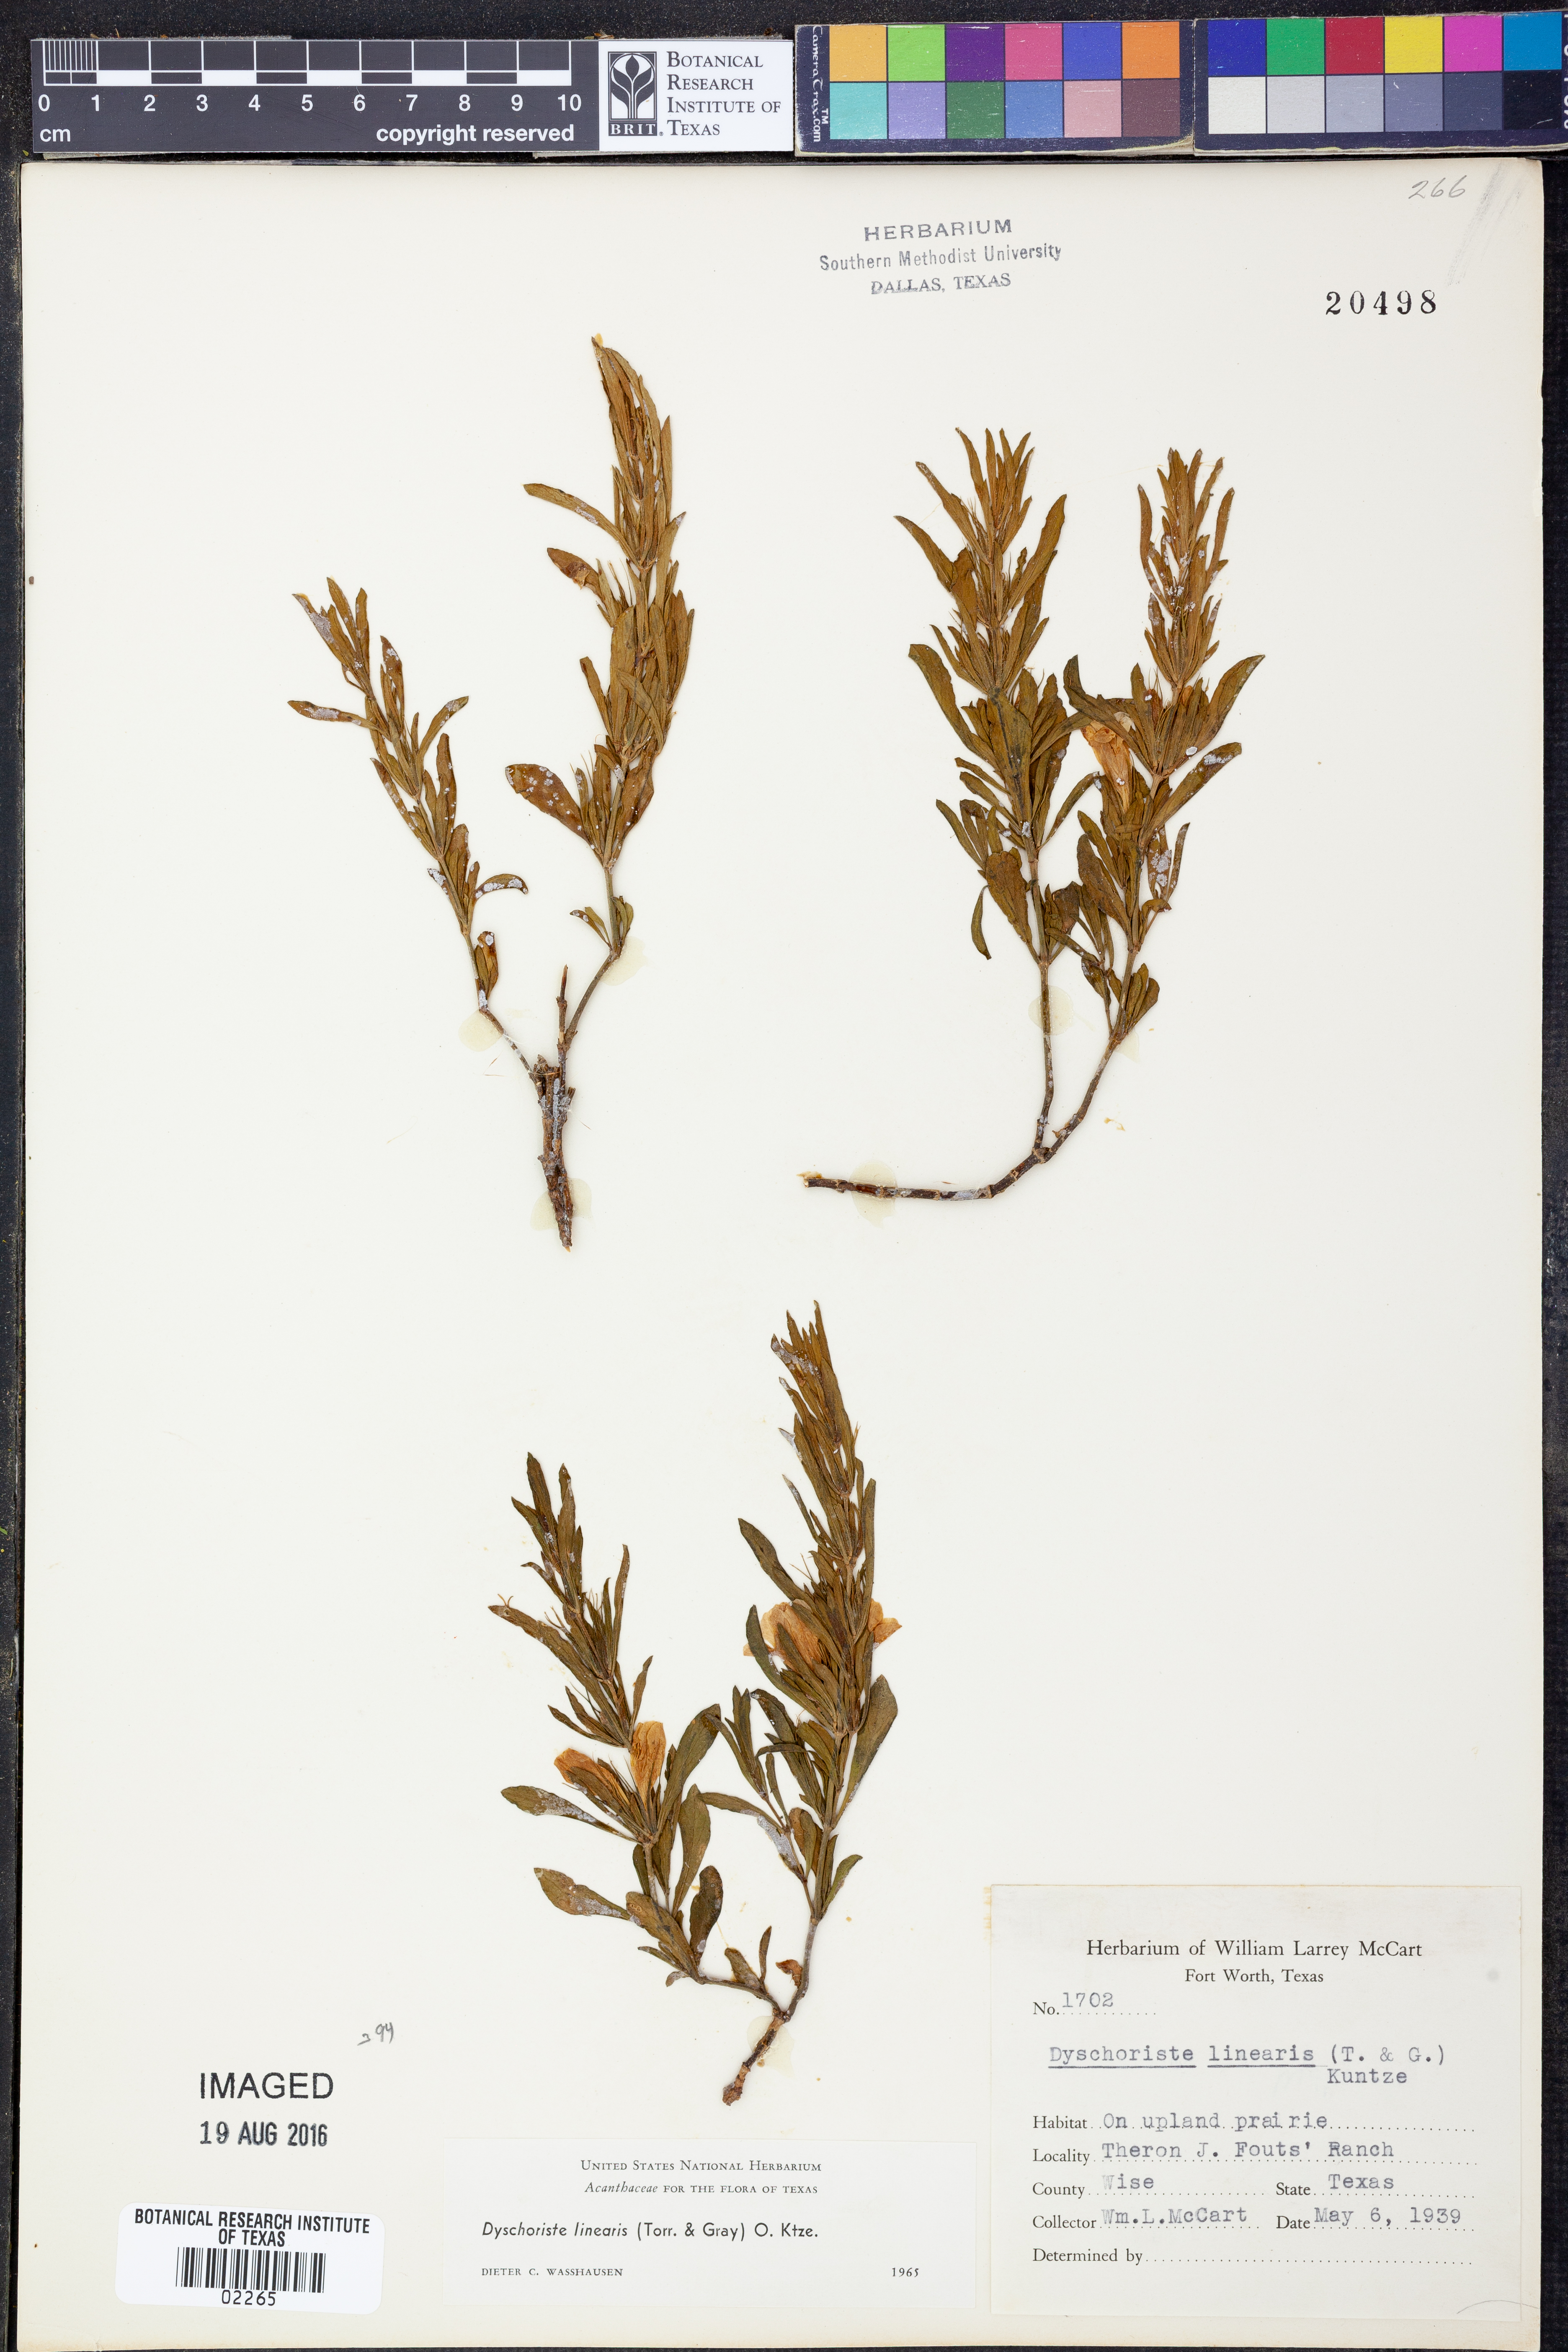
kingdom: Plantae
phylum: Tracheophyta
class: Magnoliopsida
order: Lamiales
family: Acanthaceae
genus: Dyschoriste
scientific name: Dyschoriste linearis
